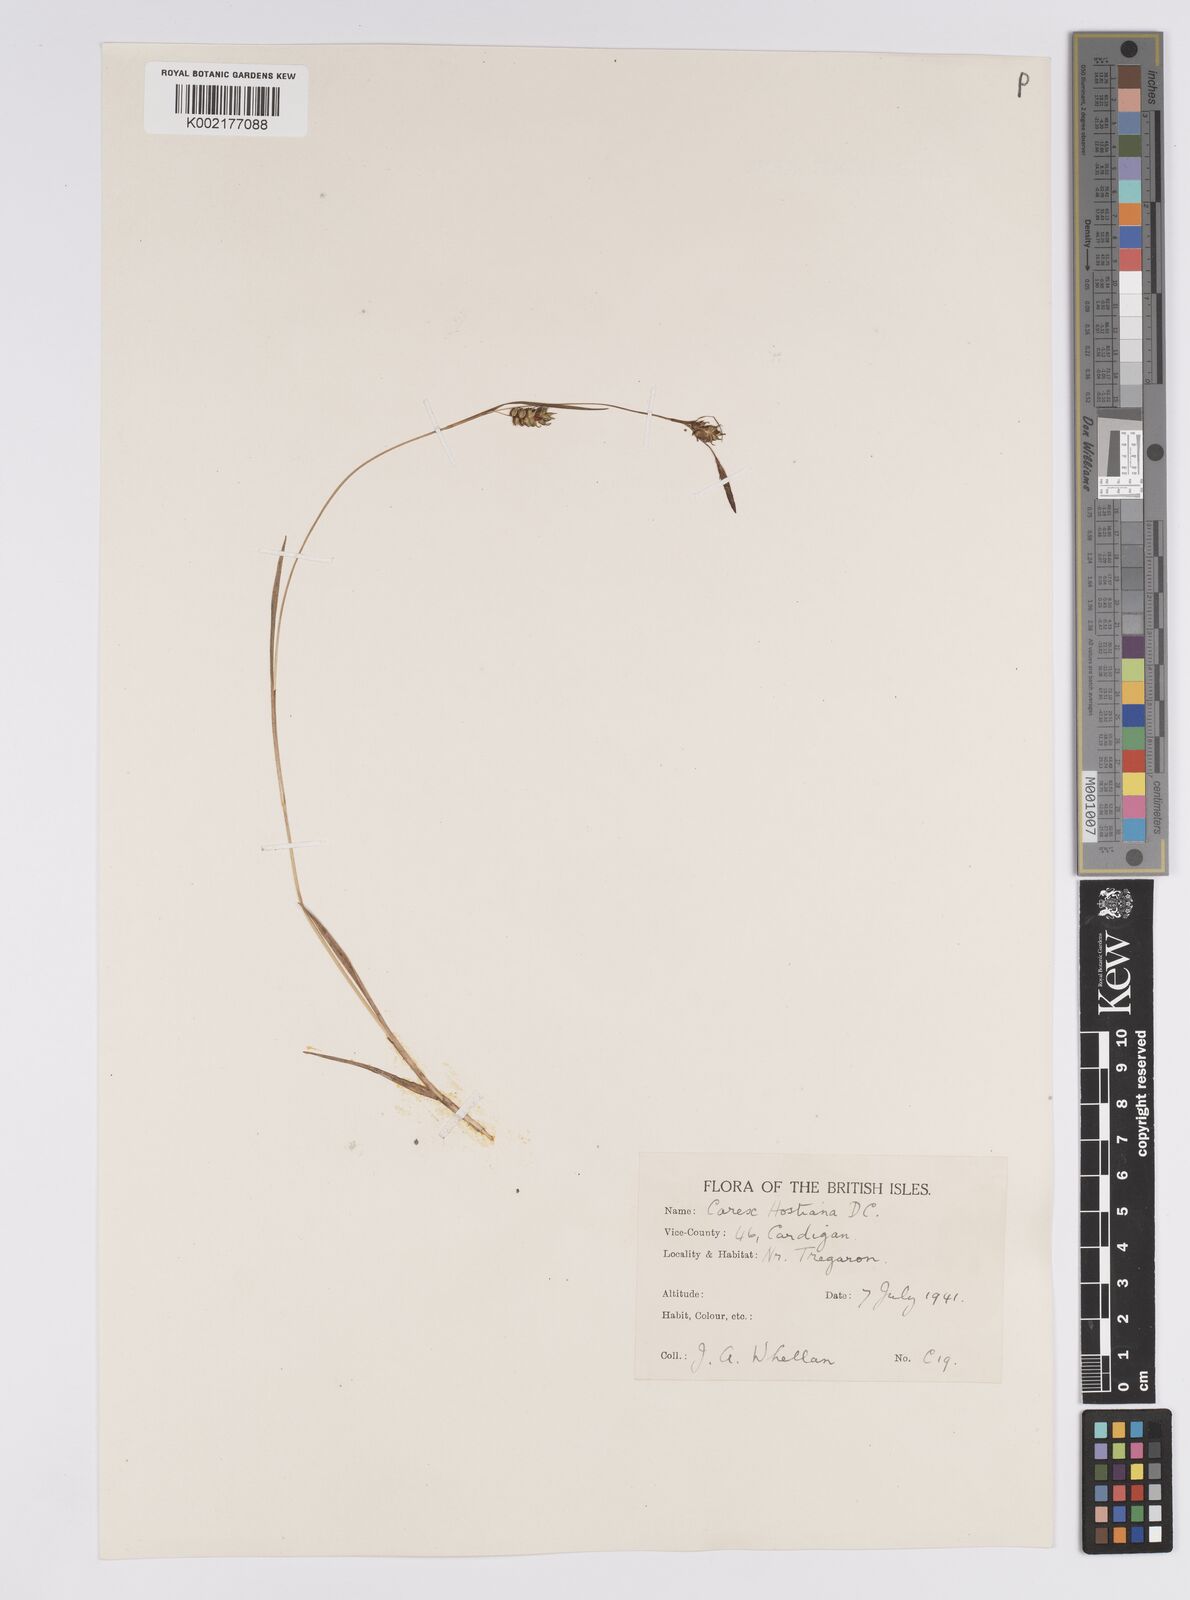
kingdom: Plantae
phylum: Tracheophyta
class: Liliopsida
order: Poales
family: Cyperaceae
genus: Carex
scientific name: Carex hostiana
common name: Tawny sedge
